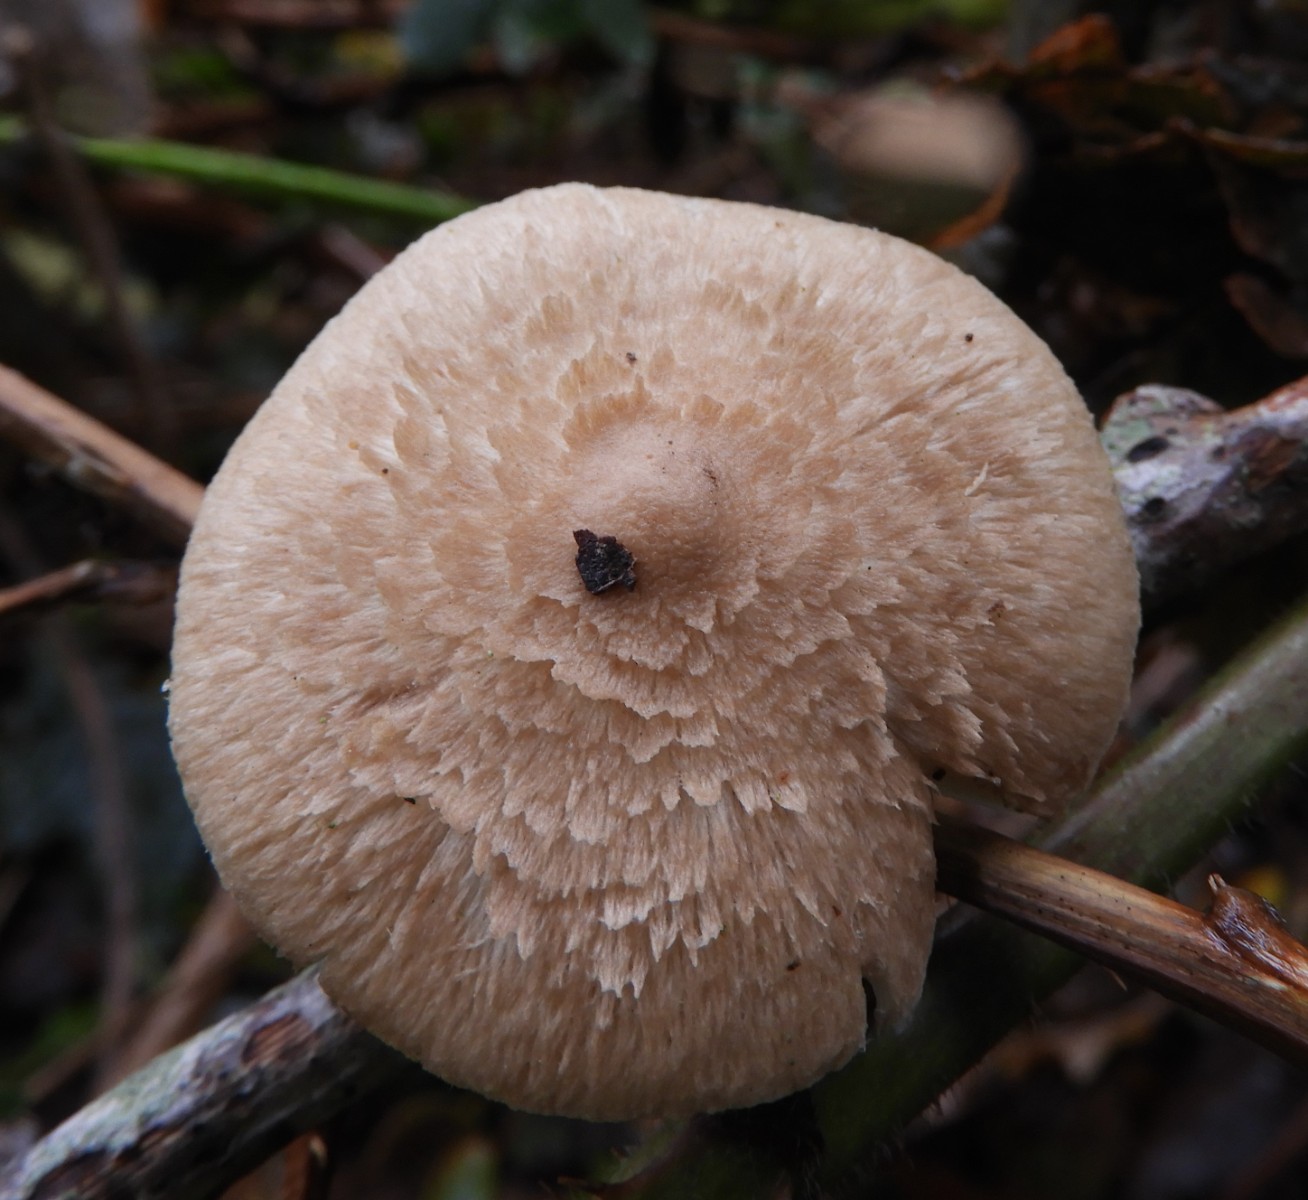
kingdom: Fungi
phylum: Basidiomycota
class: Agaricomycetes
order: Agaricales
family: Inocybaceae
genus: Inocybe
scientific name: Inocybe
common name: trævlhat
